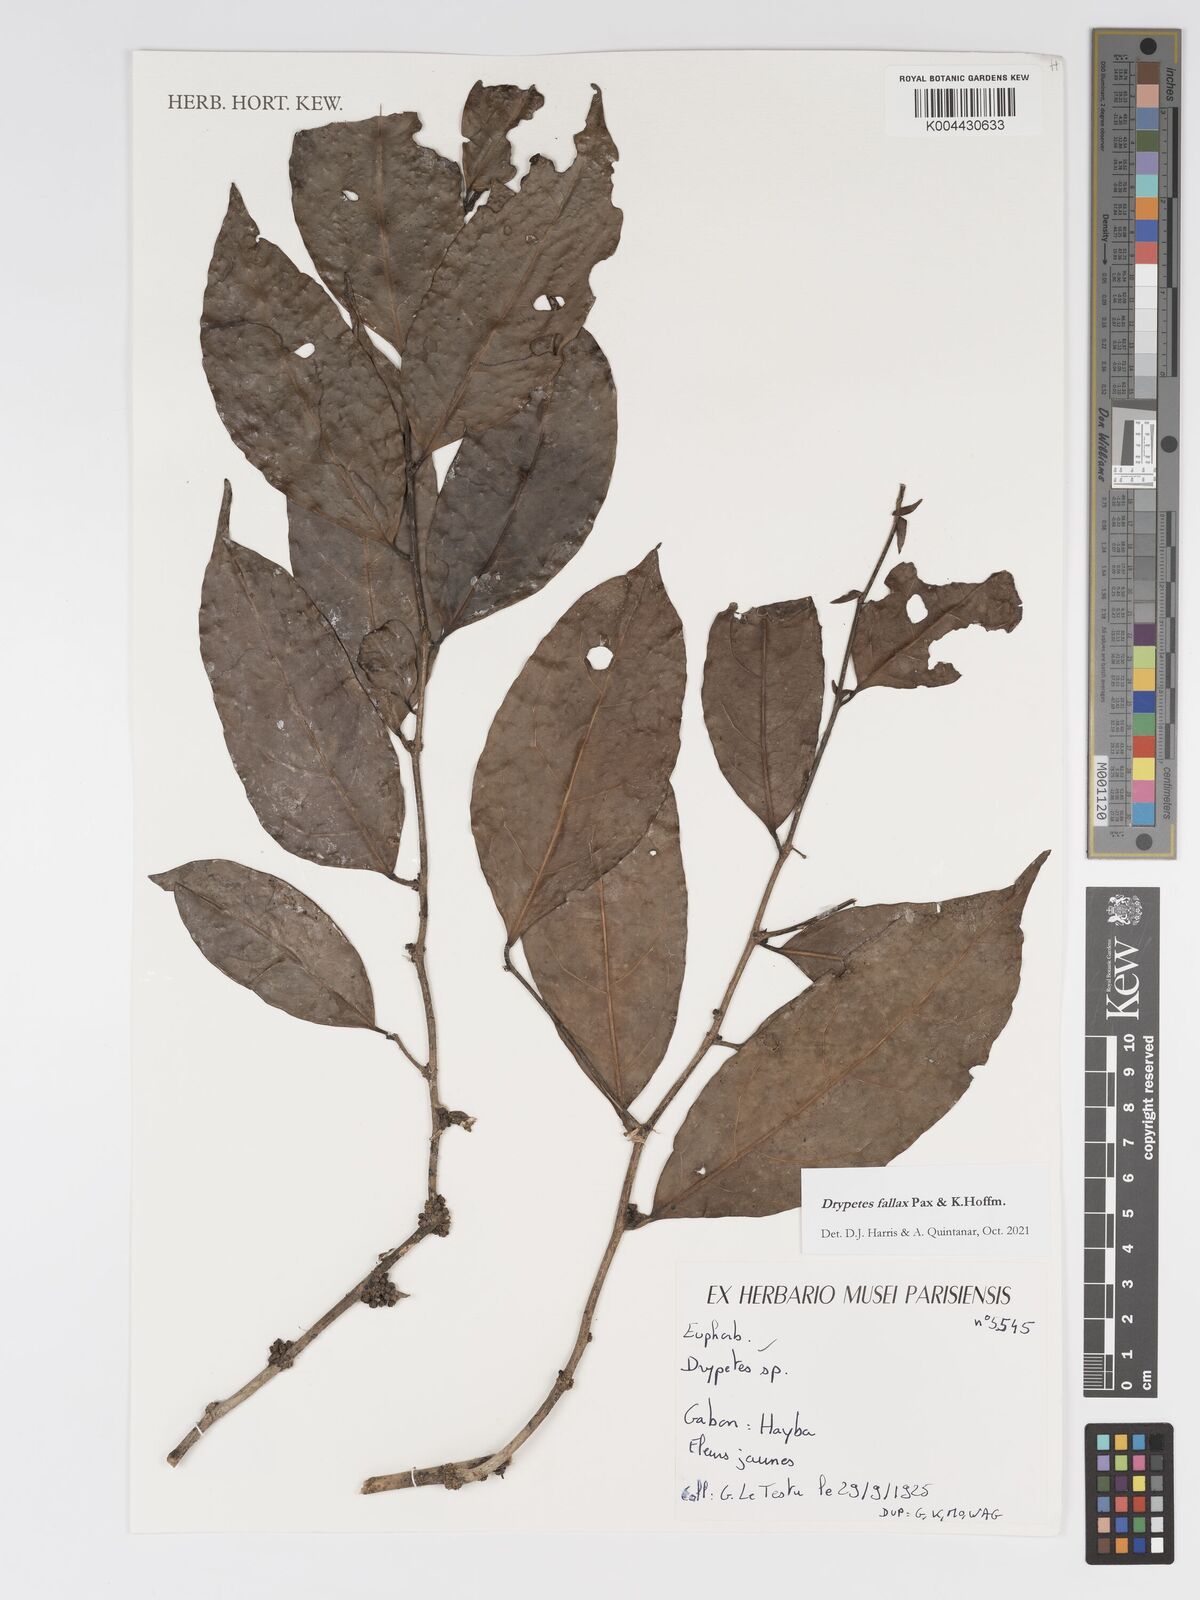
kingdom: Plantae
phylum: Tracheophyta
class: Magnoliopsida
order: Malpighiales
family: Putranjivaceae
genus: Drypetes
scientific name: Drypetes fallax
